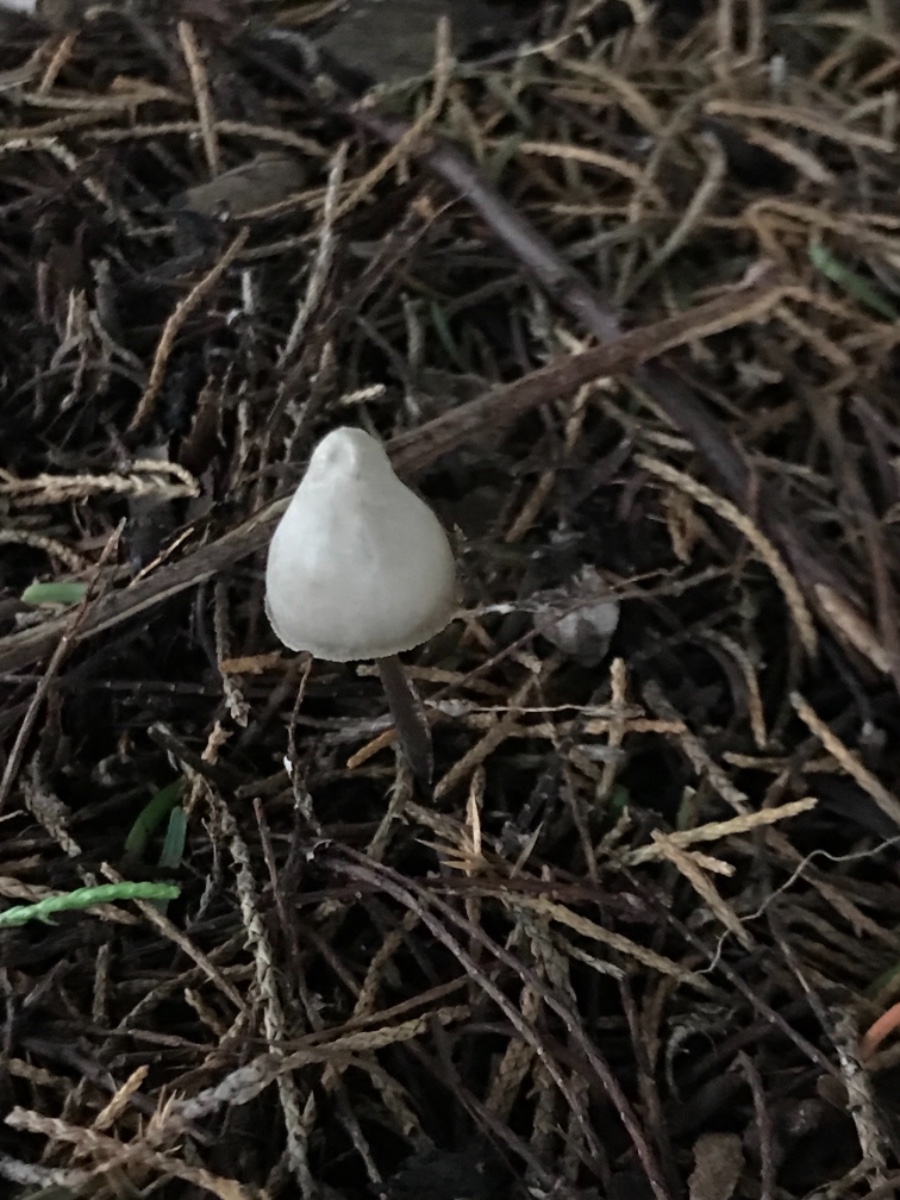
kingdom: Fungi
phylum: Basidiomycota
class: Agaricomycetes
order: Agaricales
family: Mycenaceae
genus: Mycena
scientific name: Mycena
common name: huesvamp
